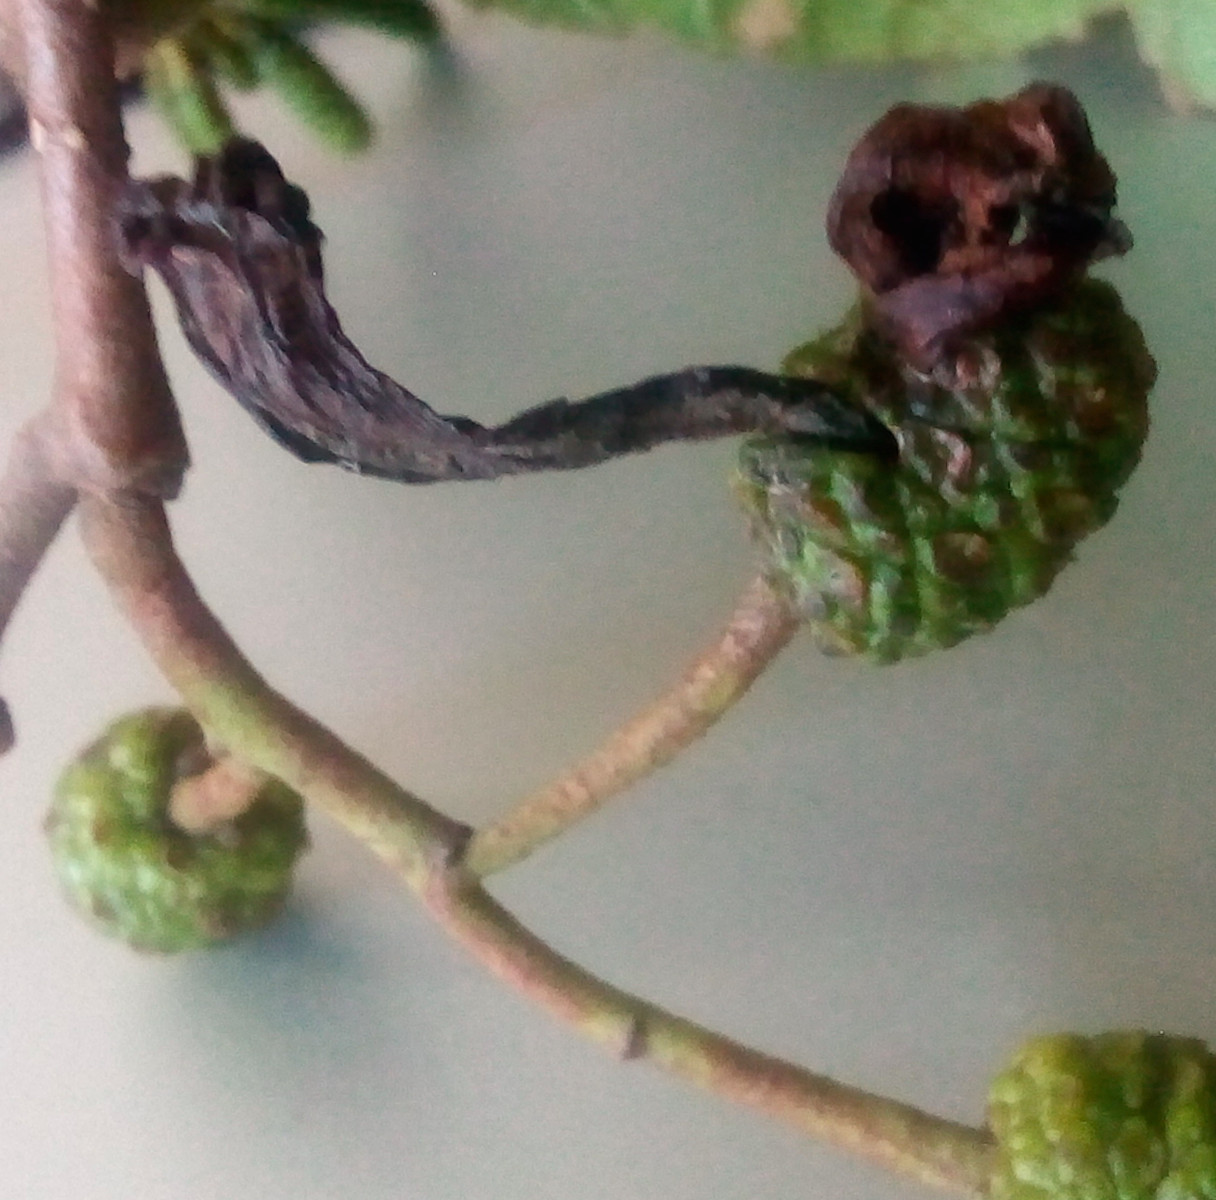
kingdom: Fungi
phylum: Ascomycota
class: Taphrinomycetes
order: Taphrinales
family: Taphrinaceae
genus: Taphrina
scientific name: Taphrina alni
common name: Alder tongue
